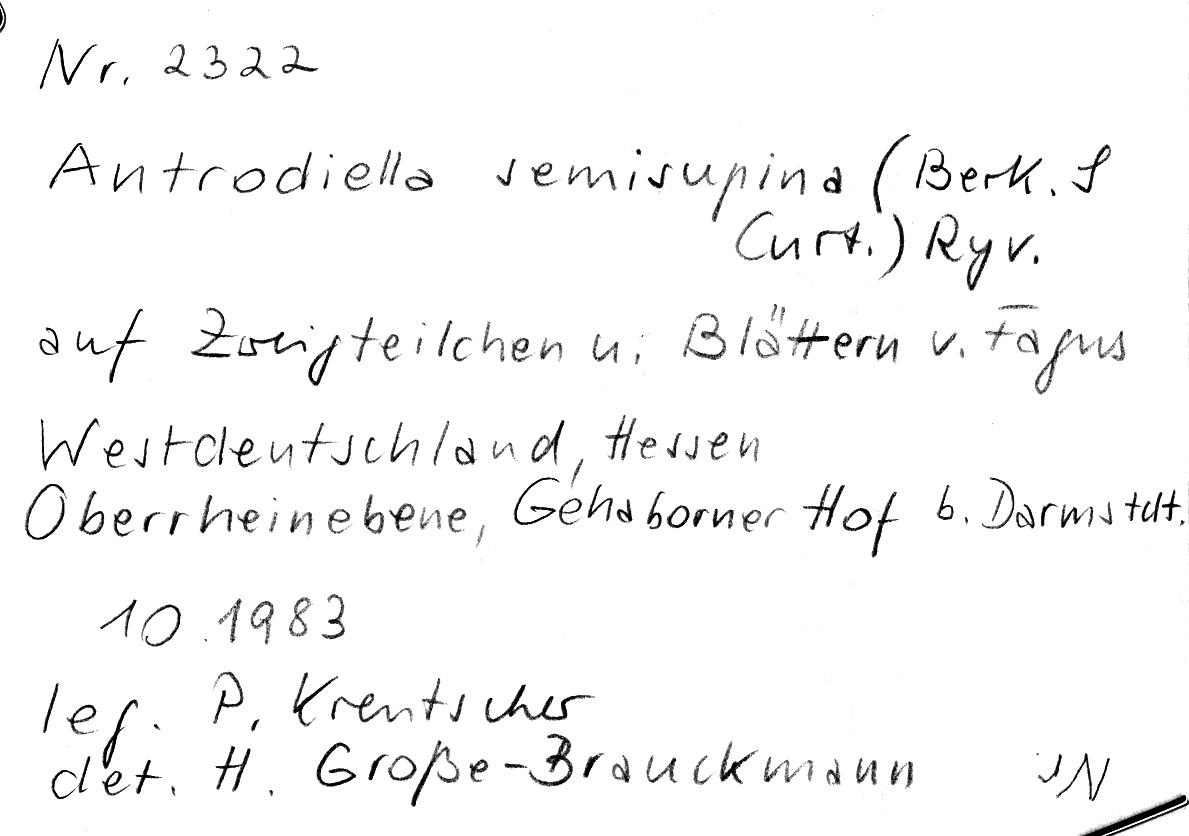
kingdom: Fungi
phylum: Basidiomycota
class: Agaricomycetes
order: Polyporales
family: Steccherinaceae
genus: Antrodiella
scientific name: Antrodiella semisupina
